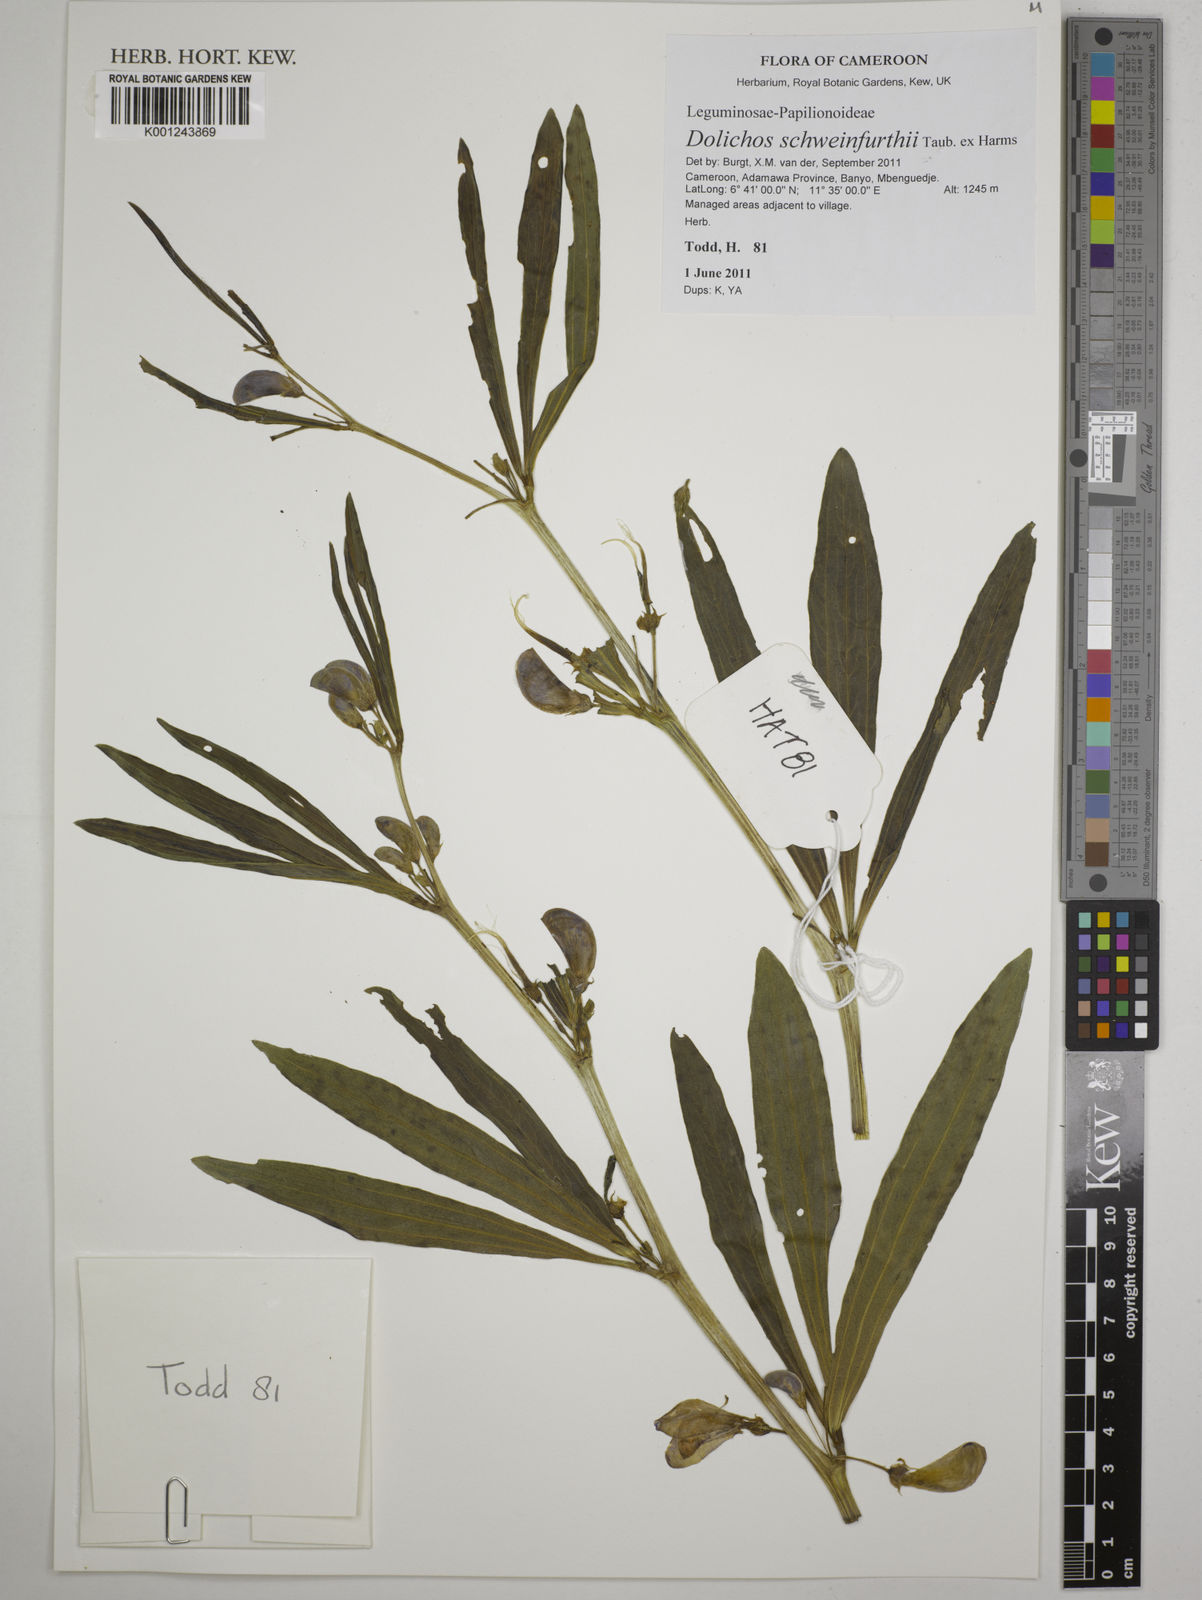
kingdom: Plantae
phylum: Tracheophyta
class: Magnoliopsida
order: Fabales
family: Fabaceae
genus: Dolichos
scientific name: Dolichos schweinfurthii
